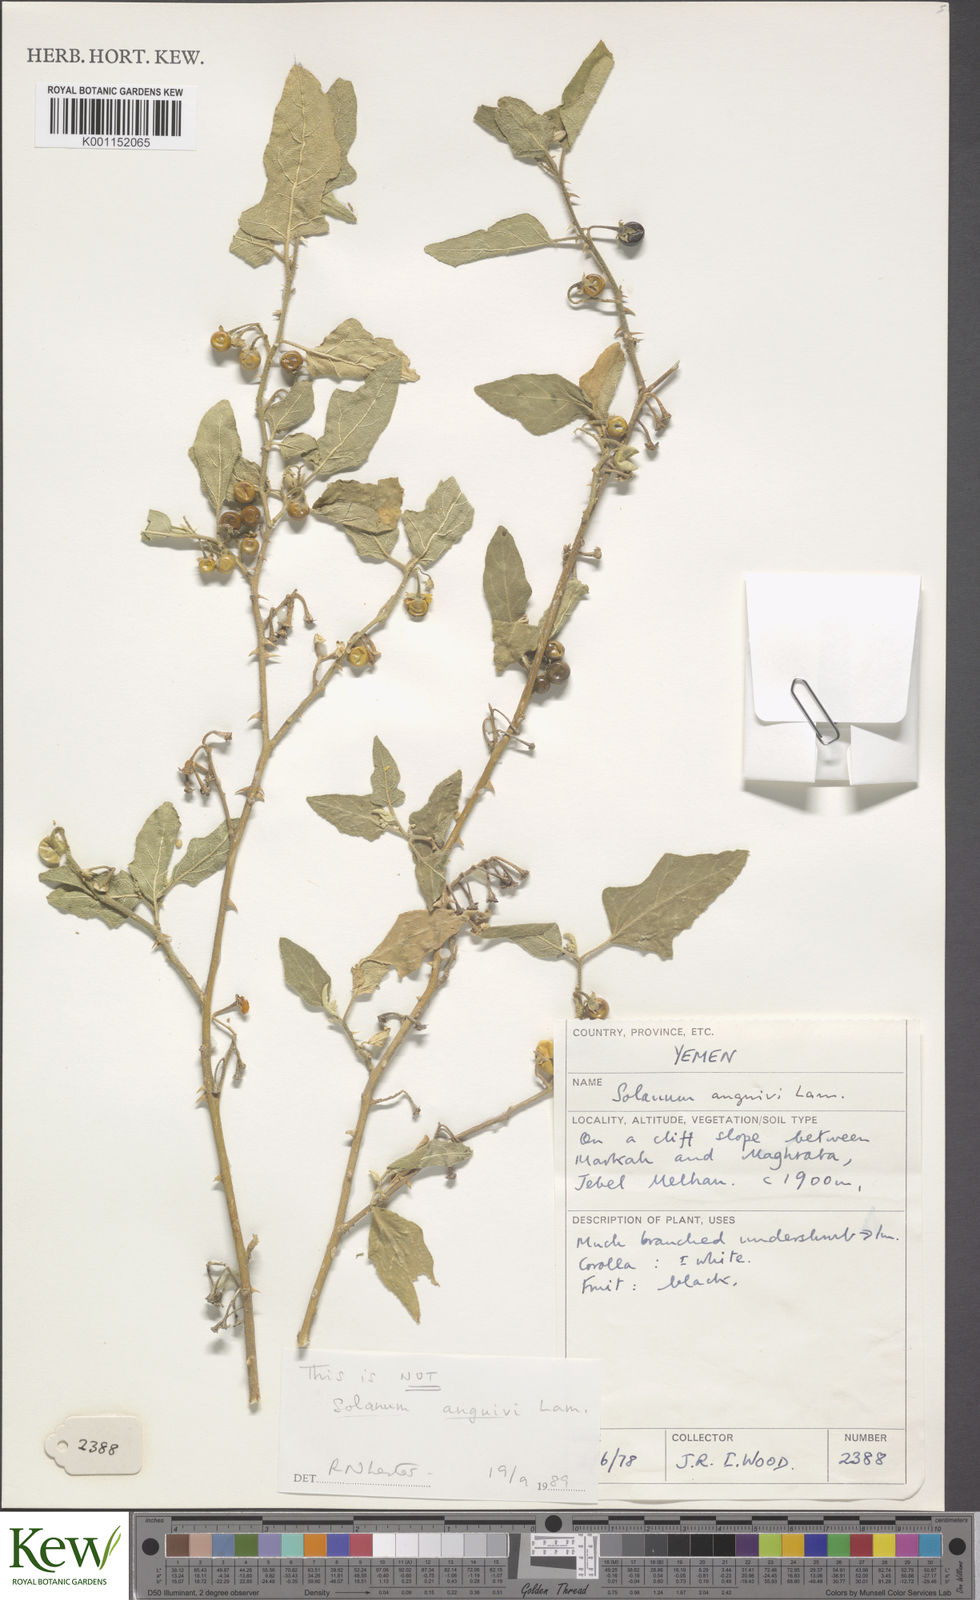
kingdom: Plantae
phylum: Tracheophyta
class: Magnoliopsida
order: Solanales
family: Solanaceae
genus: Solanum
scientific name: Solanum anguivi
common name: Forest bitterberry
